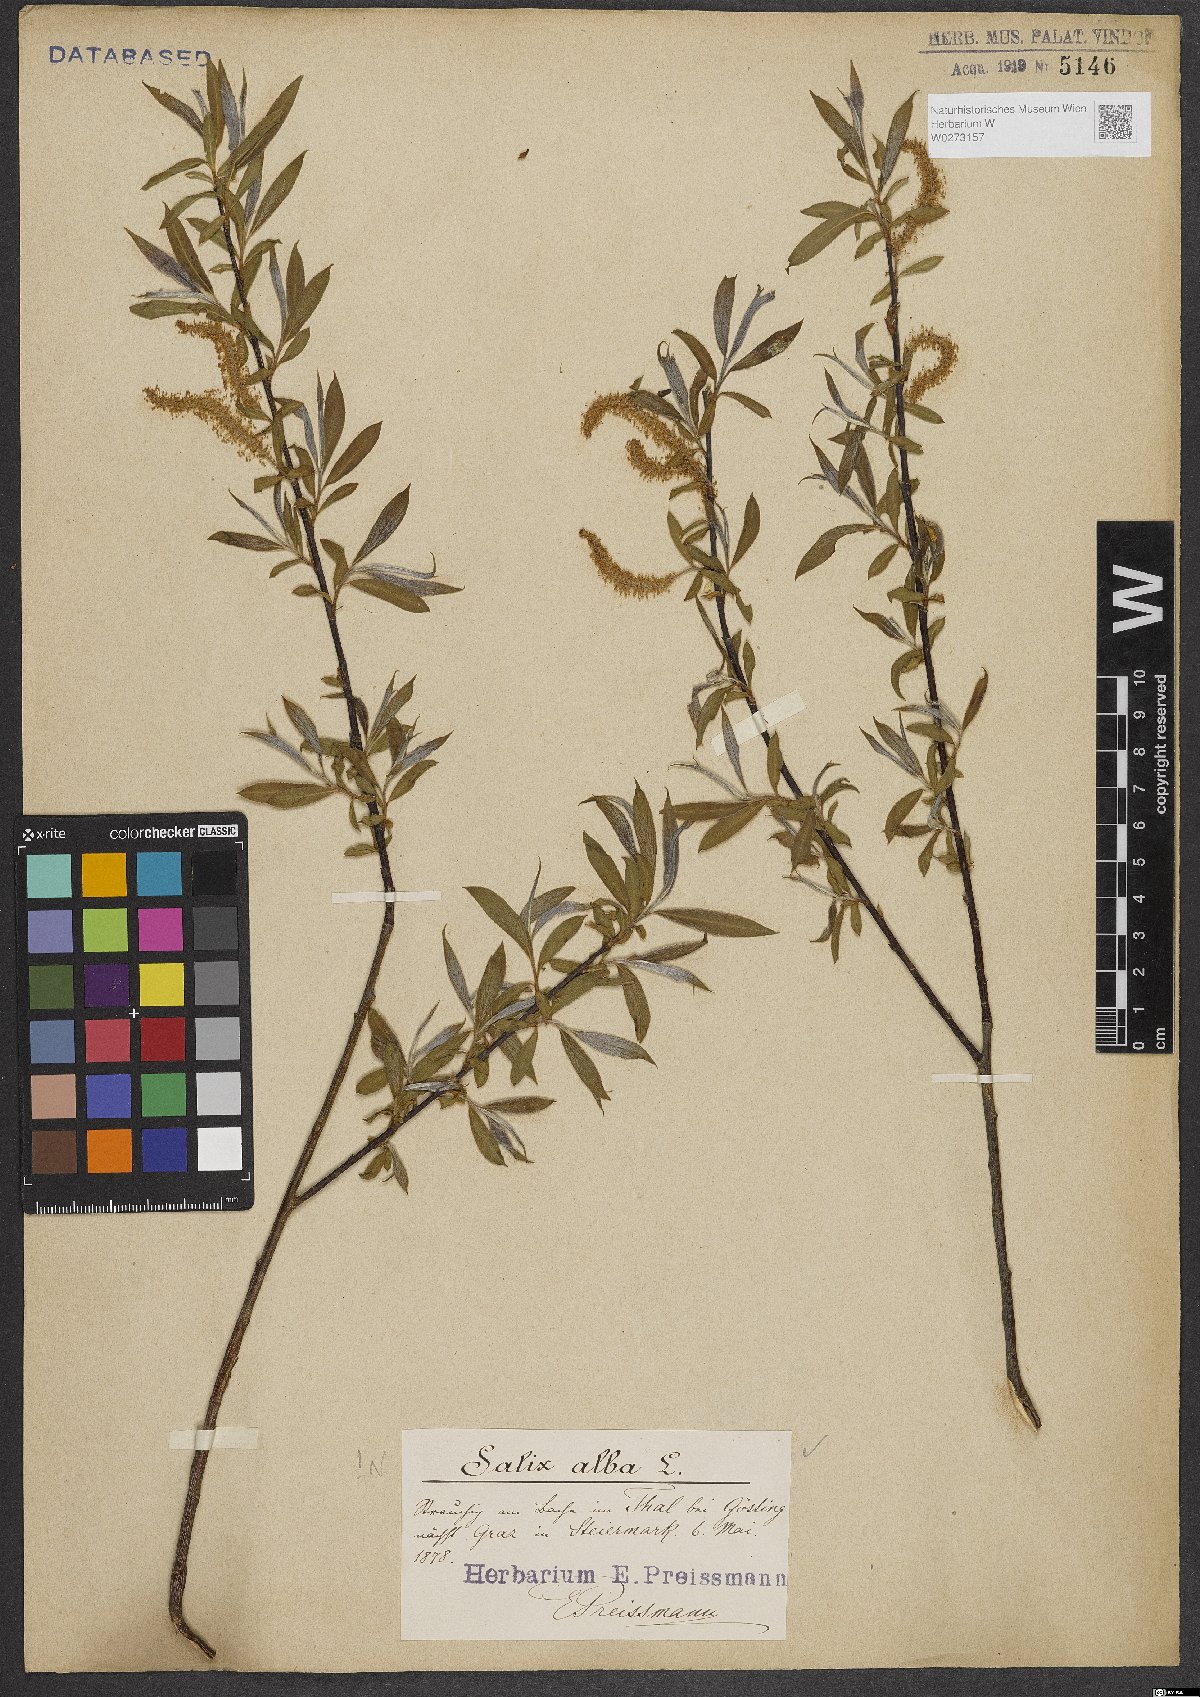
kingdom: Plantae
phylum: Tracheophyta
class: Magnoliopsida
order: Malpighiales
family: Salicaceae
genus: Salix
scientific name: Salix alba
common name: White willow
